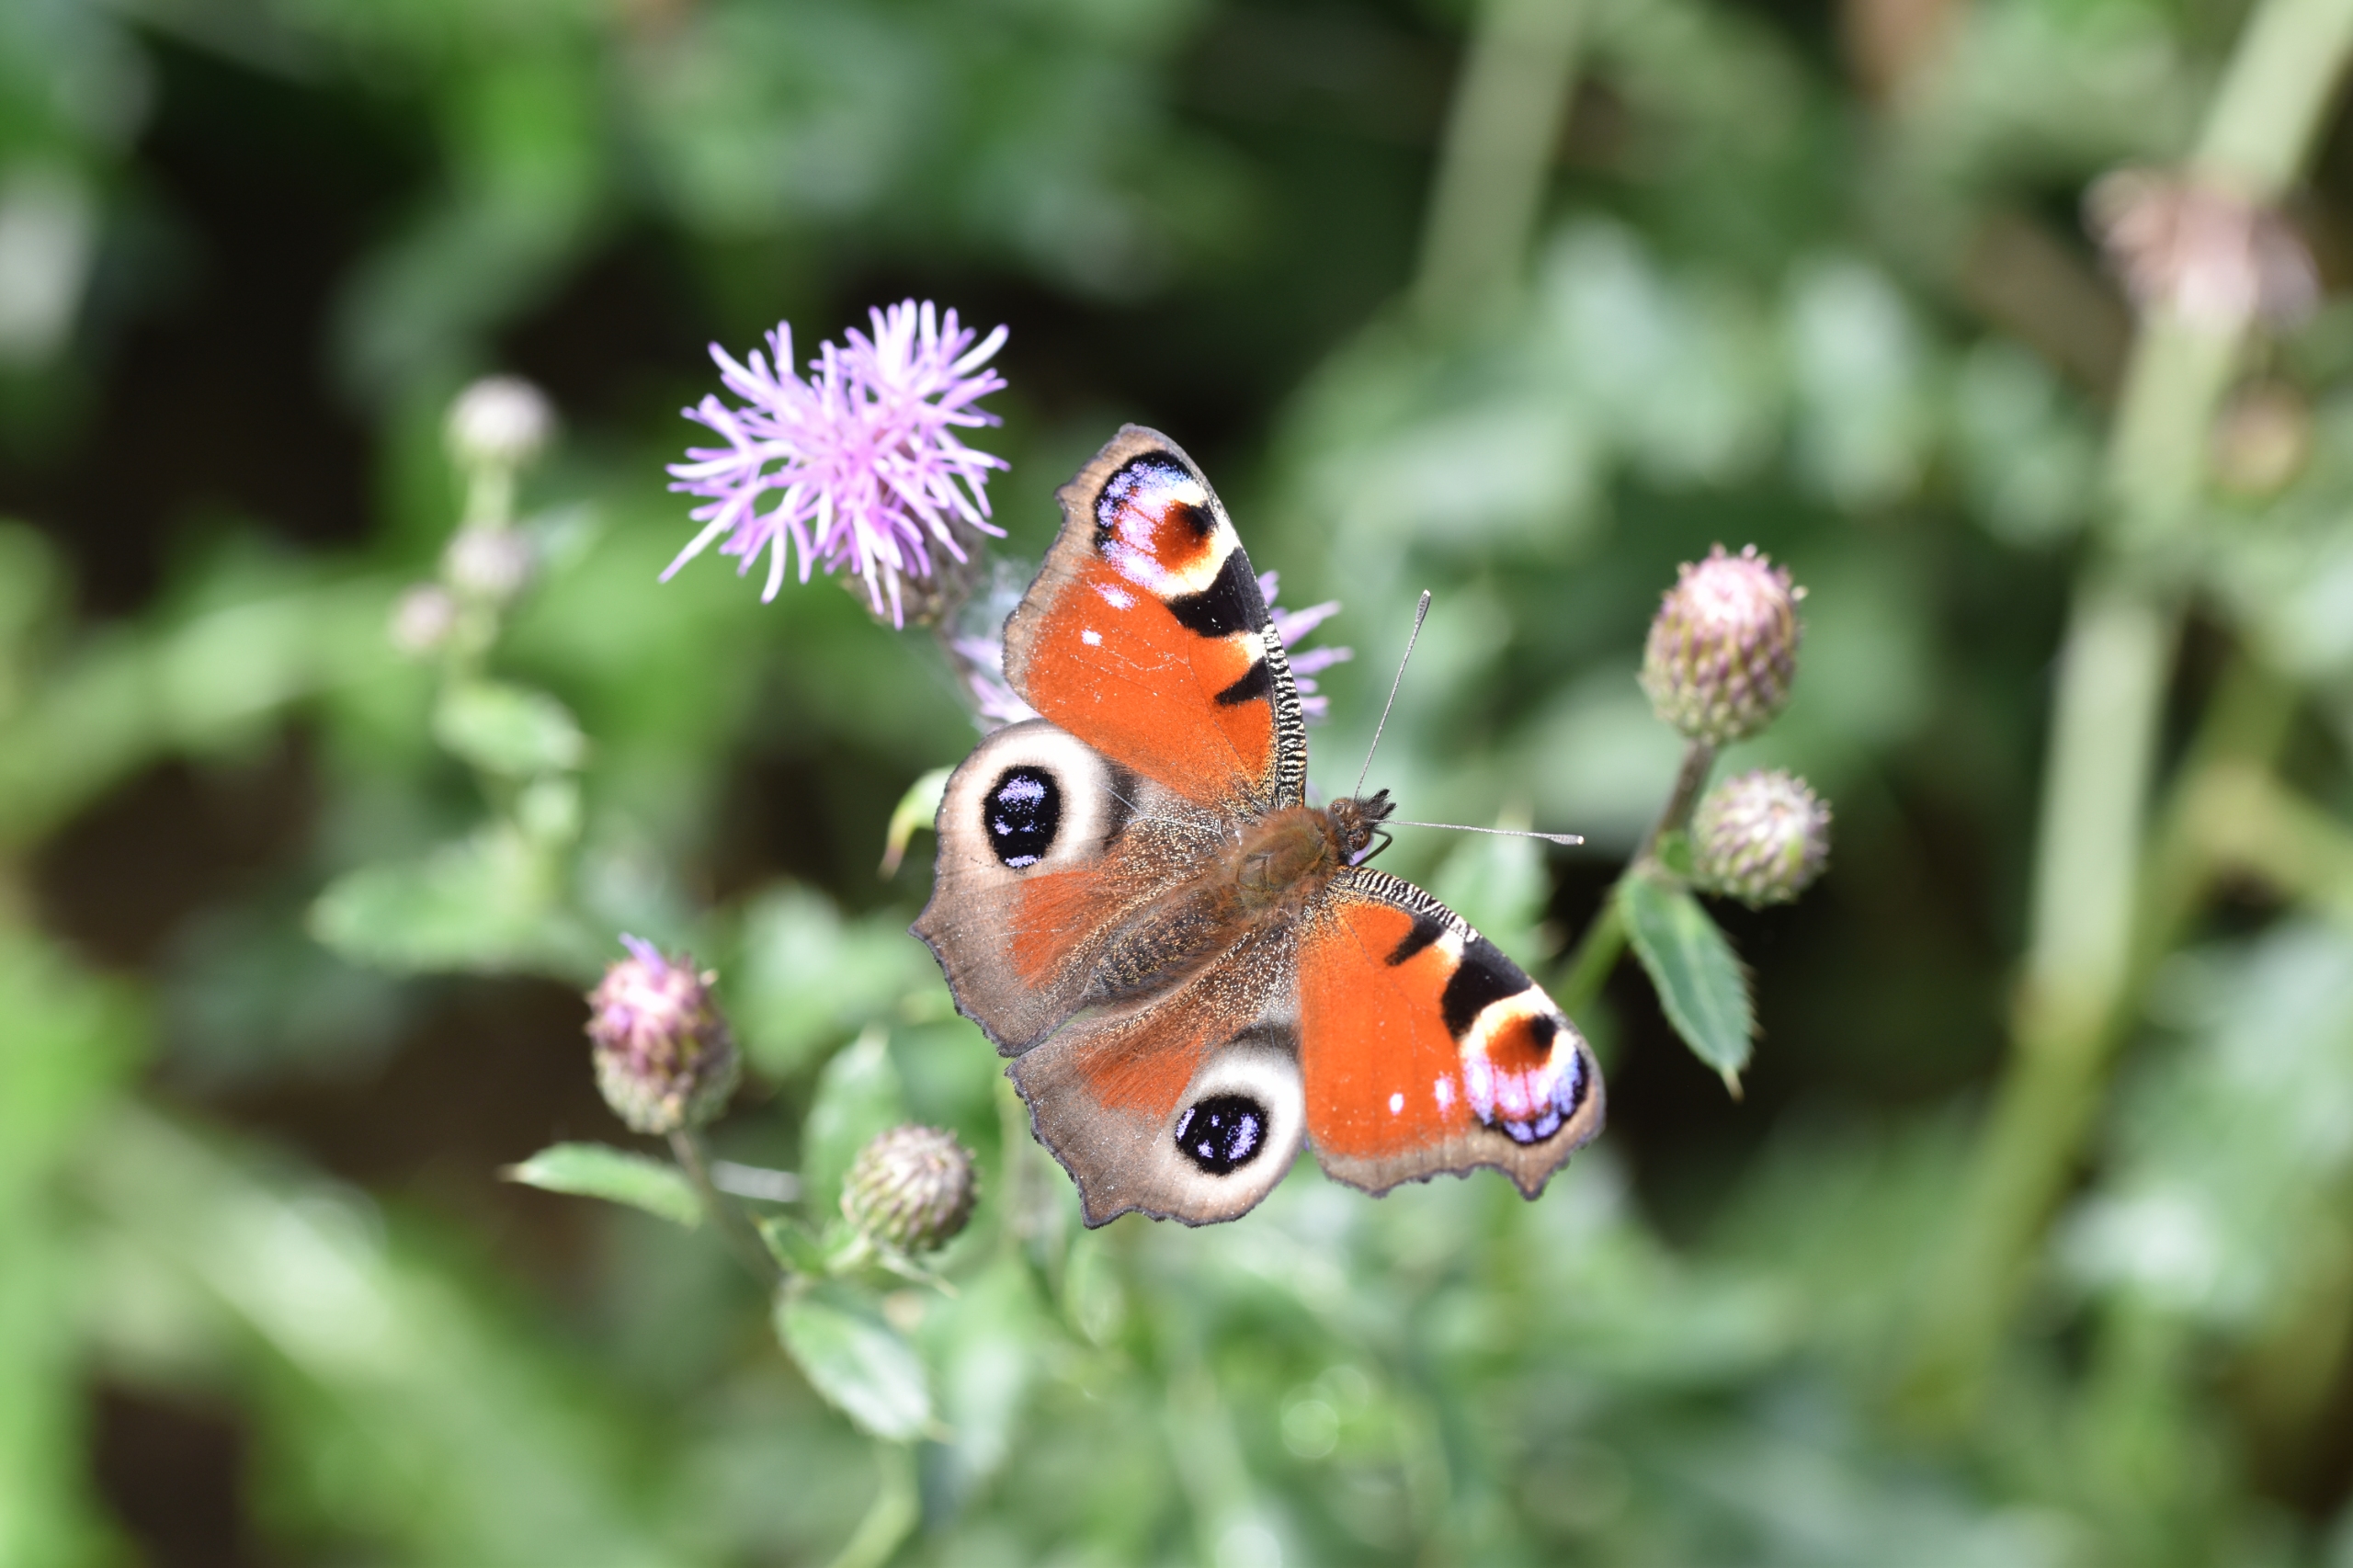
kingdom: Animalia
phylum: Arthropoda
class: Insecta
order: Lepidoptera
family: Nymphalidae
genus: Aglais
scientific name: Aglais io
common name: Dagpåfugleøje
